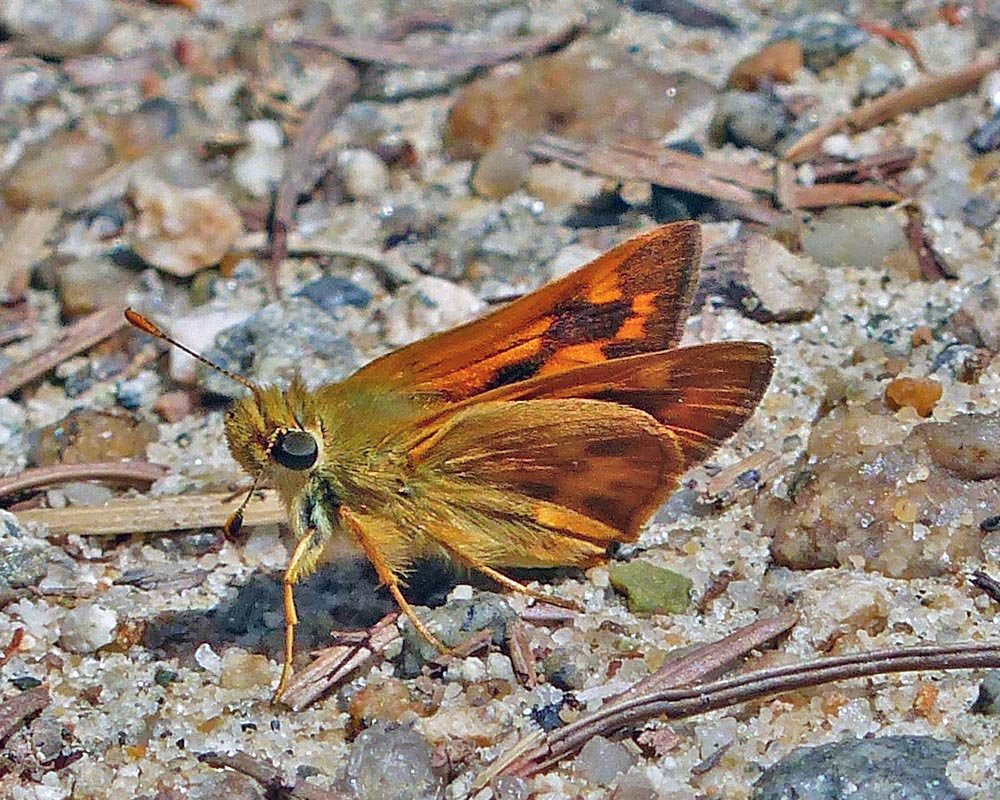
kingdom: Animalia
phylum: Arthropoda
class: Insecta
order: Lepidoptera
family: Hesperiidae
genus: Ochlodes
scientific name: Ochlodes sylvanoides
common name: Woodland Skipper
